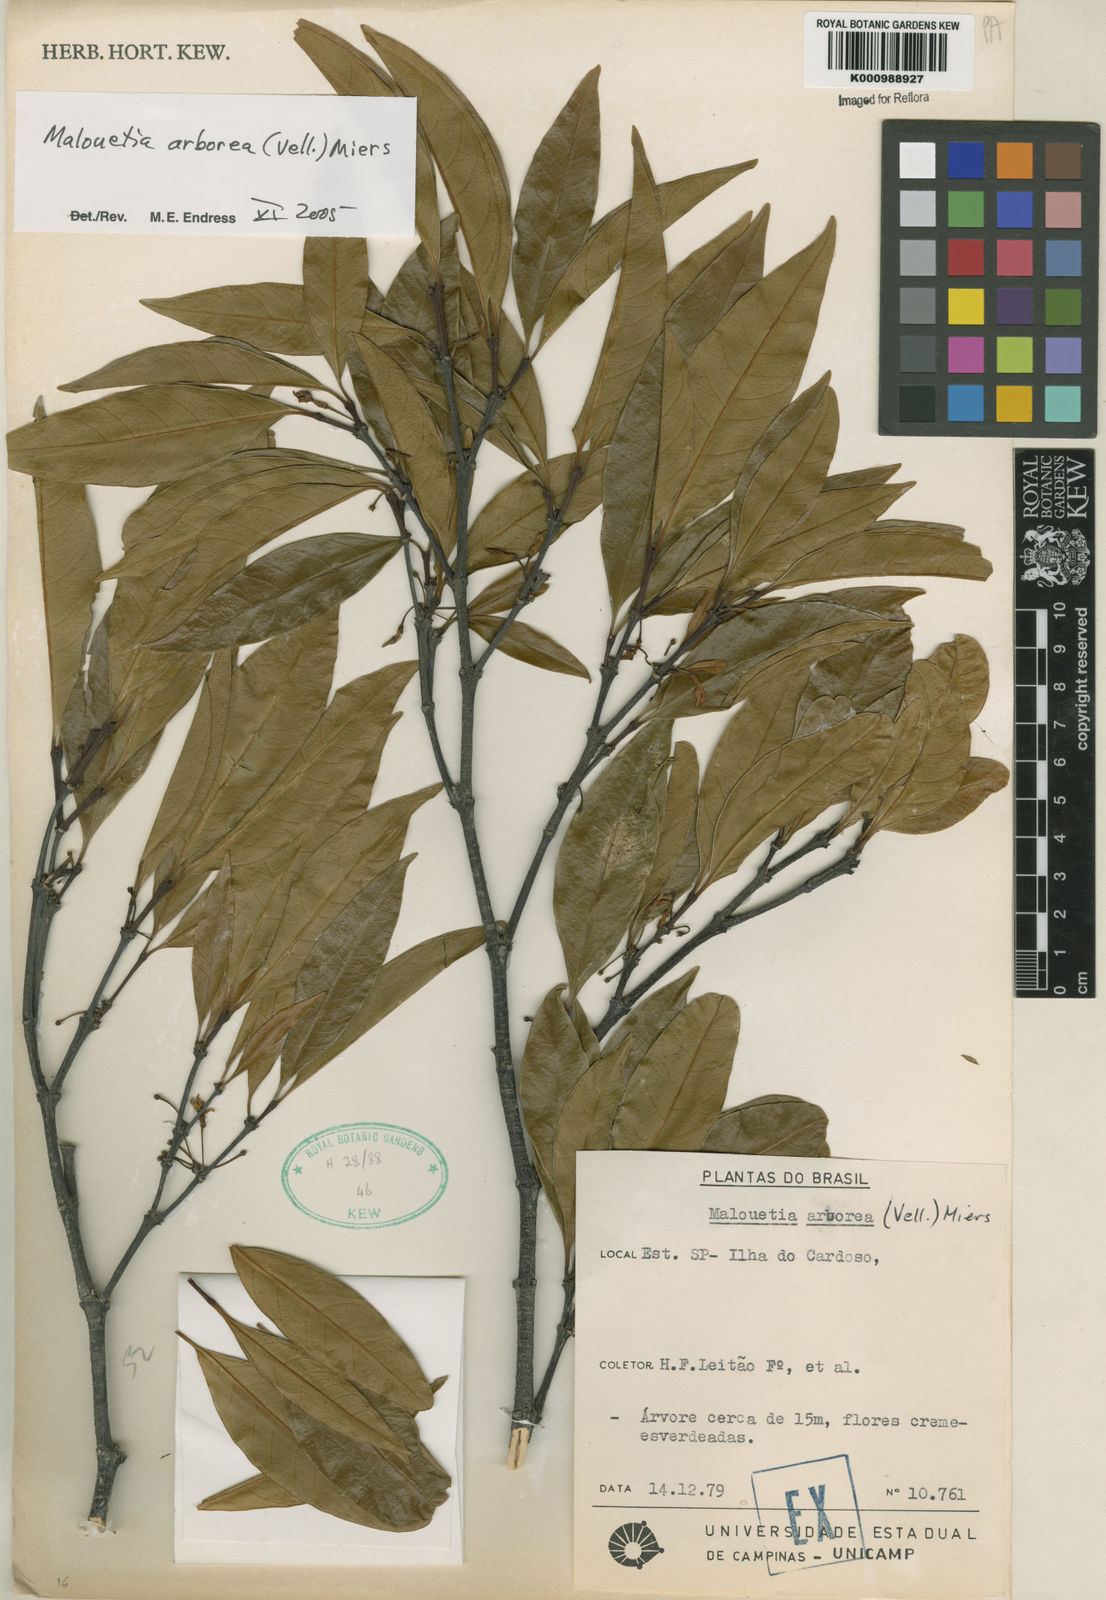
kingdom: Plantae
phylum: Tracheophyta
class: Magnoliopsida
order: Gentianales
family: Apocynaceae
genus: Malouetia
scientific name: Malouetia cestroides
